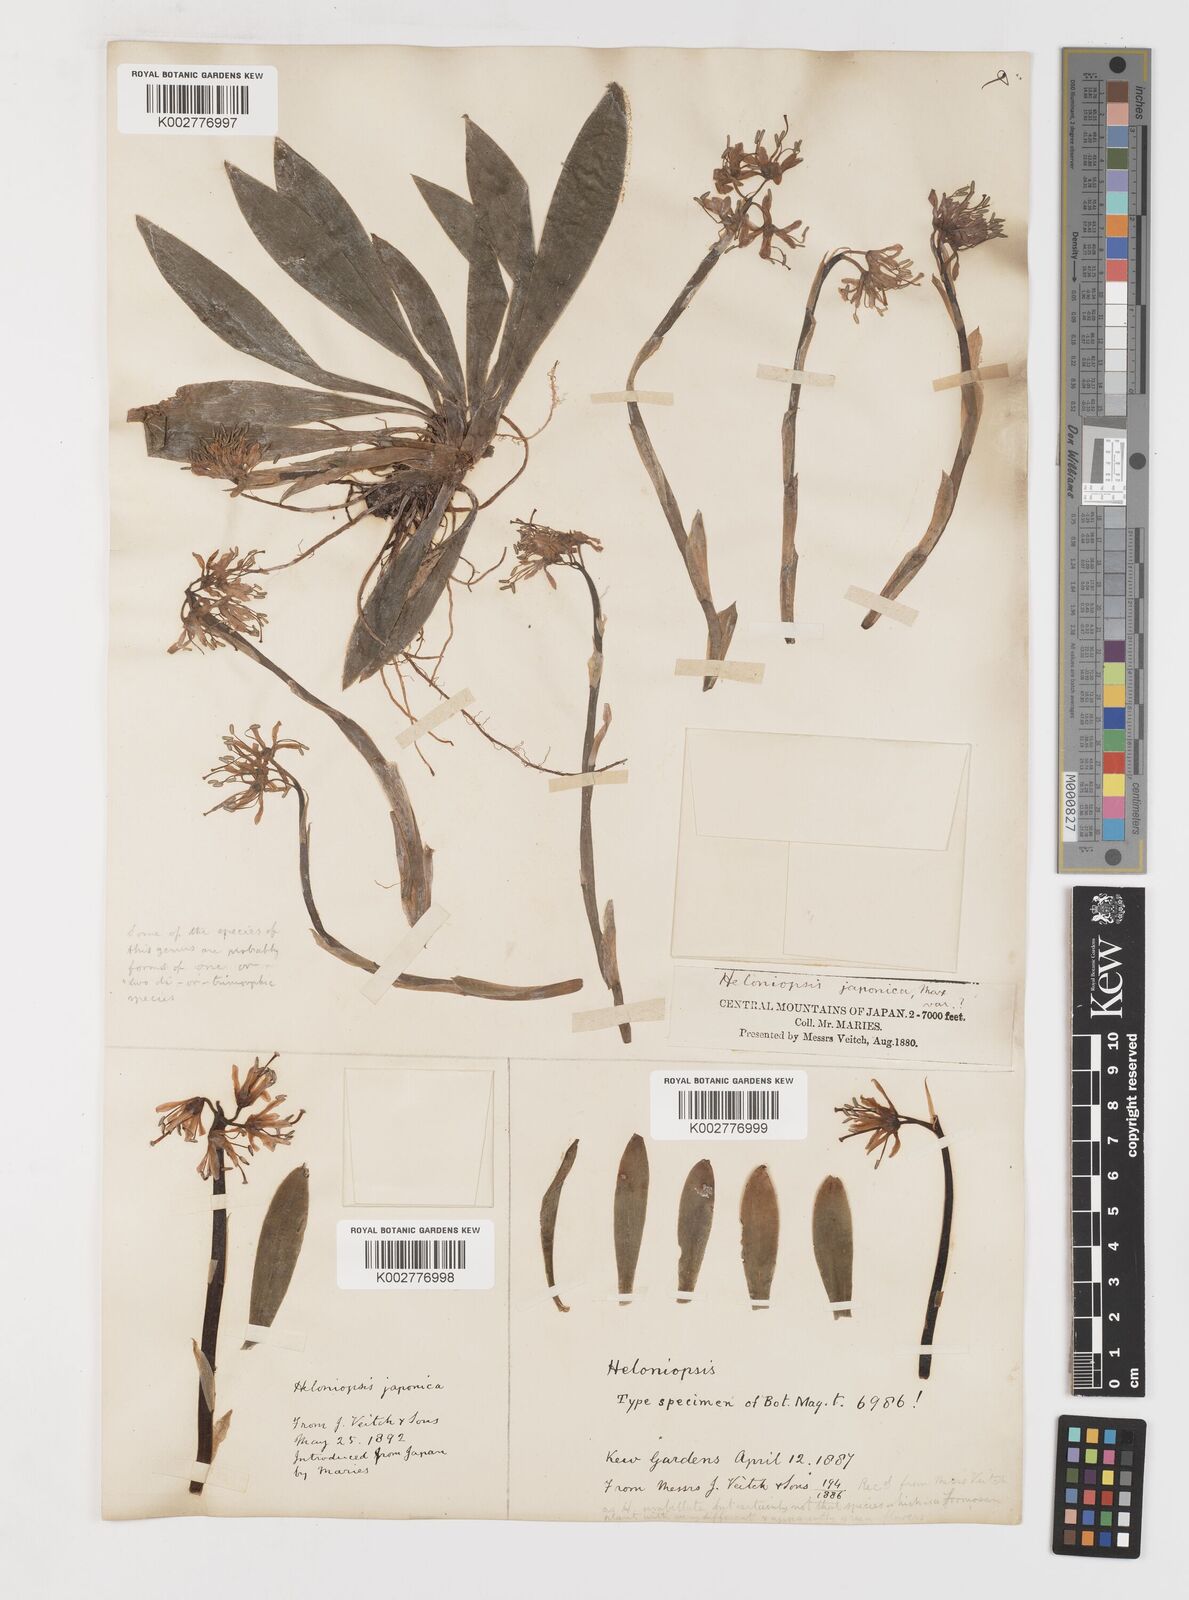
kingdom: Plantae
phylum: Tracheophyta
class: Liliopsida
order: Liliales
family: Melanthiaceae
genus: Helonias
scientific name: Helonias orientalis
